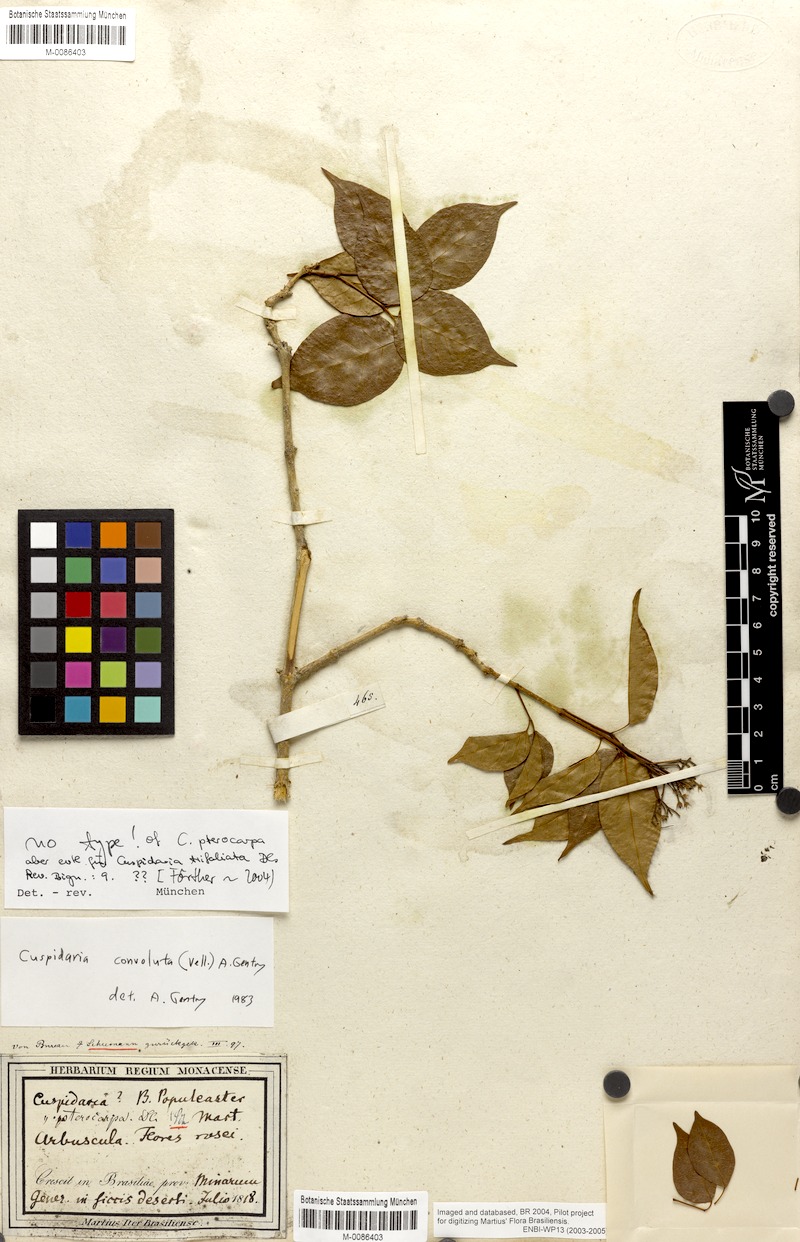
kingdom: Plantae
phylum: Tracheophyta
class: Magnoliopsida
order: Lamiales
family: Bignoniaceae
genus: Cuspidaria
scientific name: Cuspidaria convoluta
